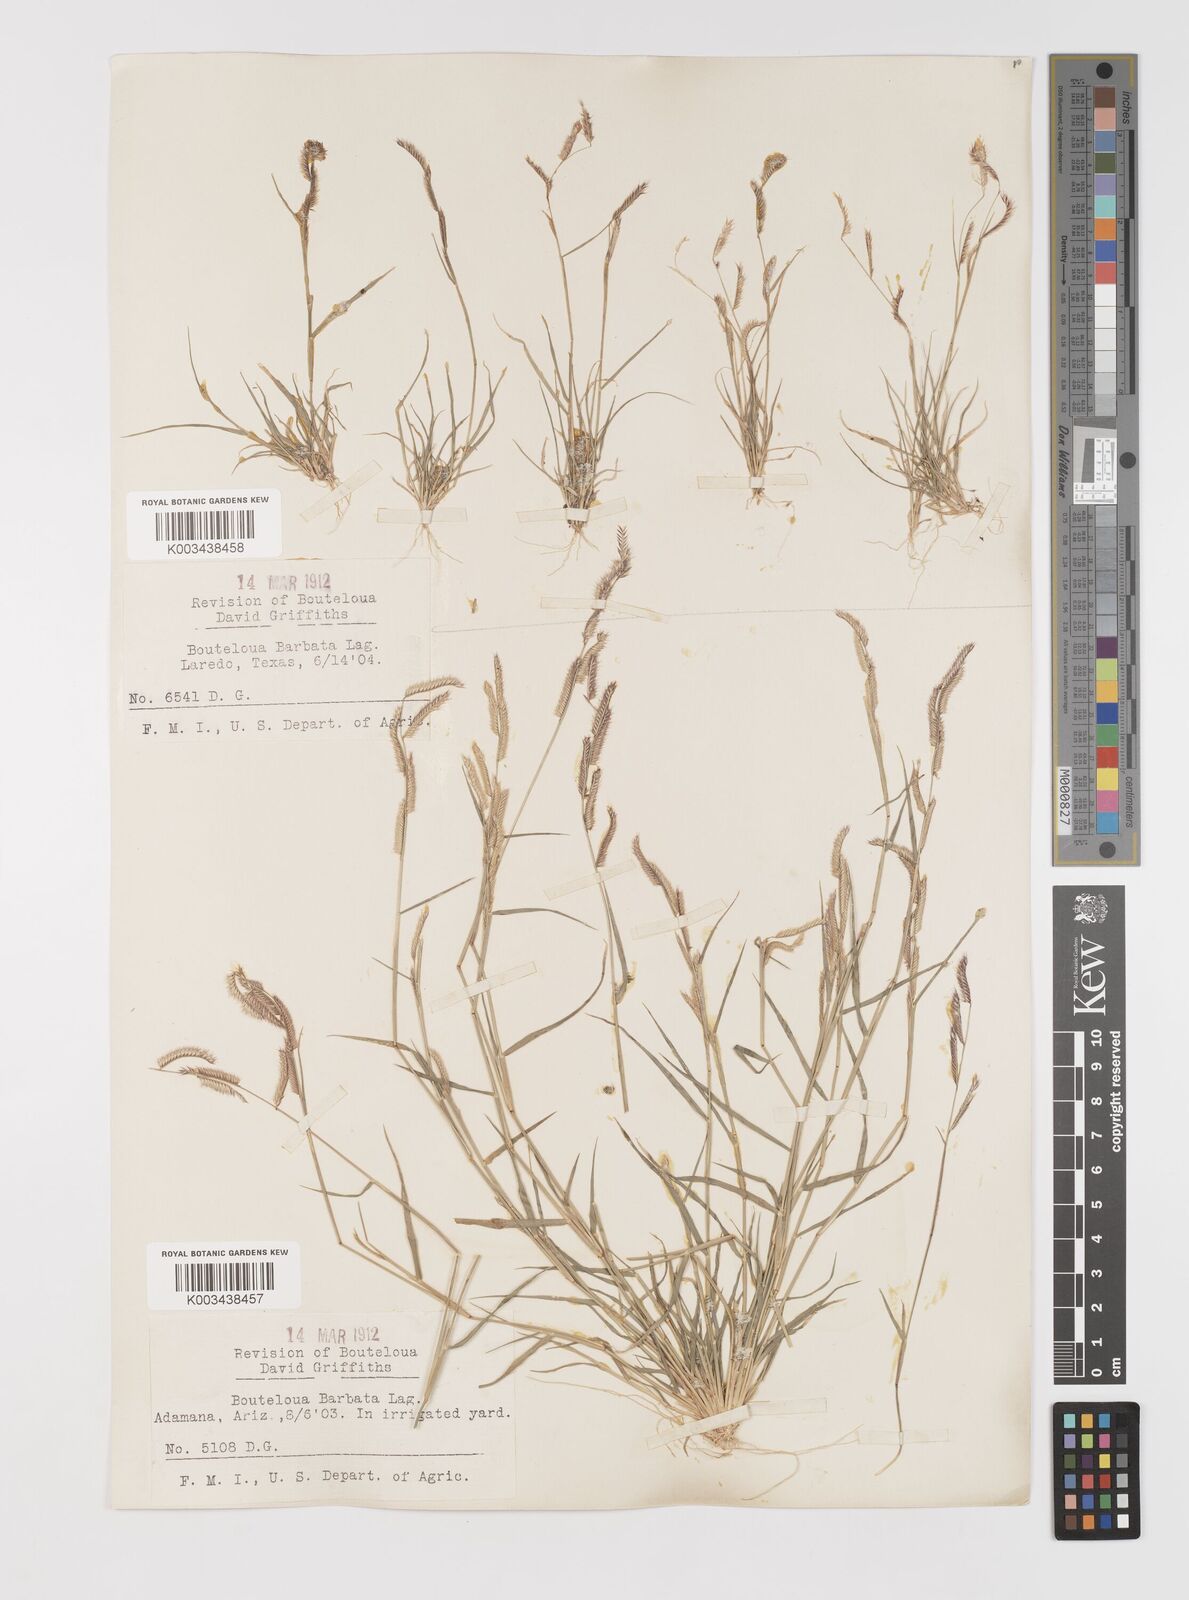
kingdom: Plantae
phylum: Tracheophyta
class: Liliopsida
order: Poales
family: Poaceae
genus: Bouteloua
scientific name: Bouteloua
